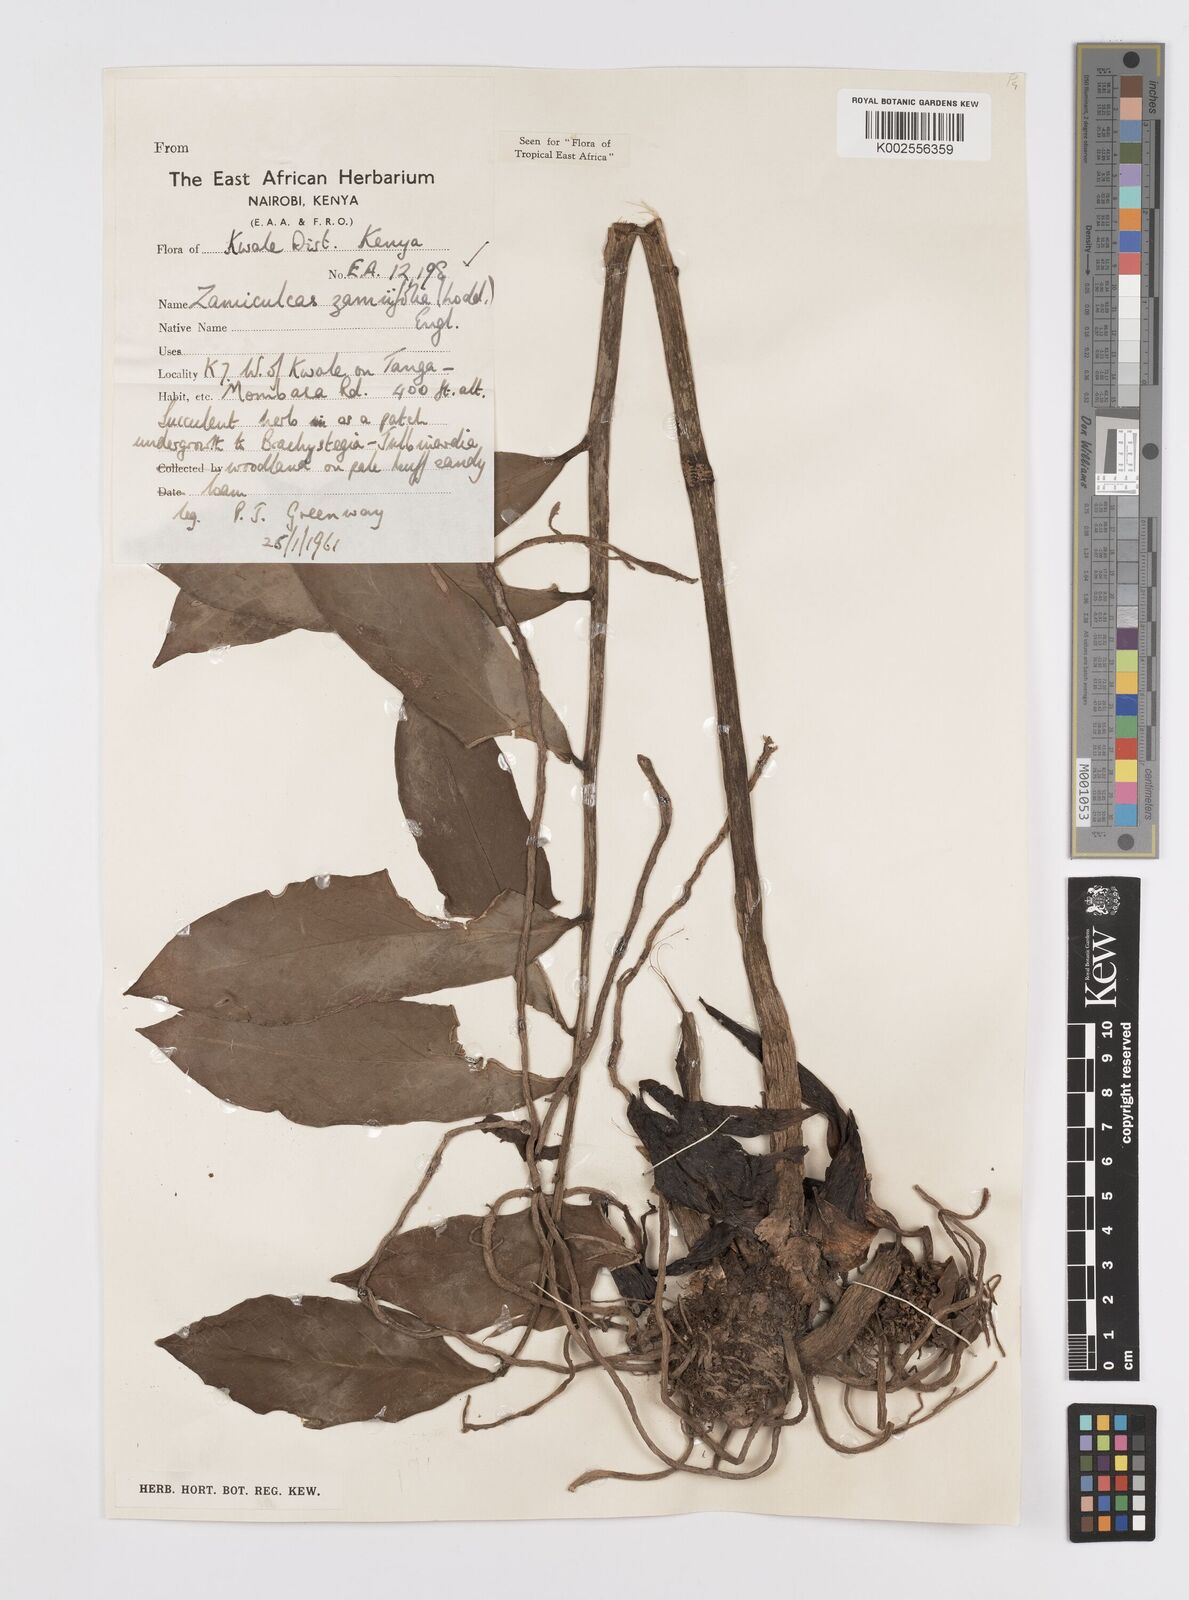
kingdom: Plantae
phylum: Tracheophyta
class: Liliopsida
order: Alismatales
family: Araceae
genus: Zamioculcas
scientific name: Zamioculcas zamiifolia
